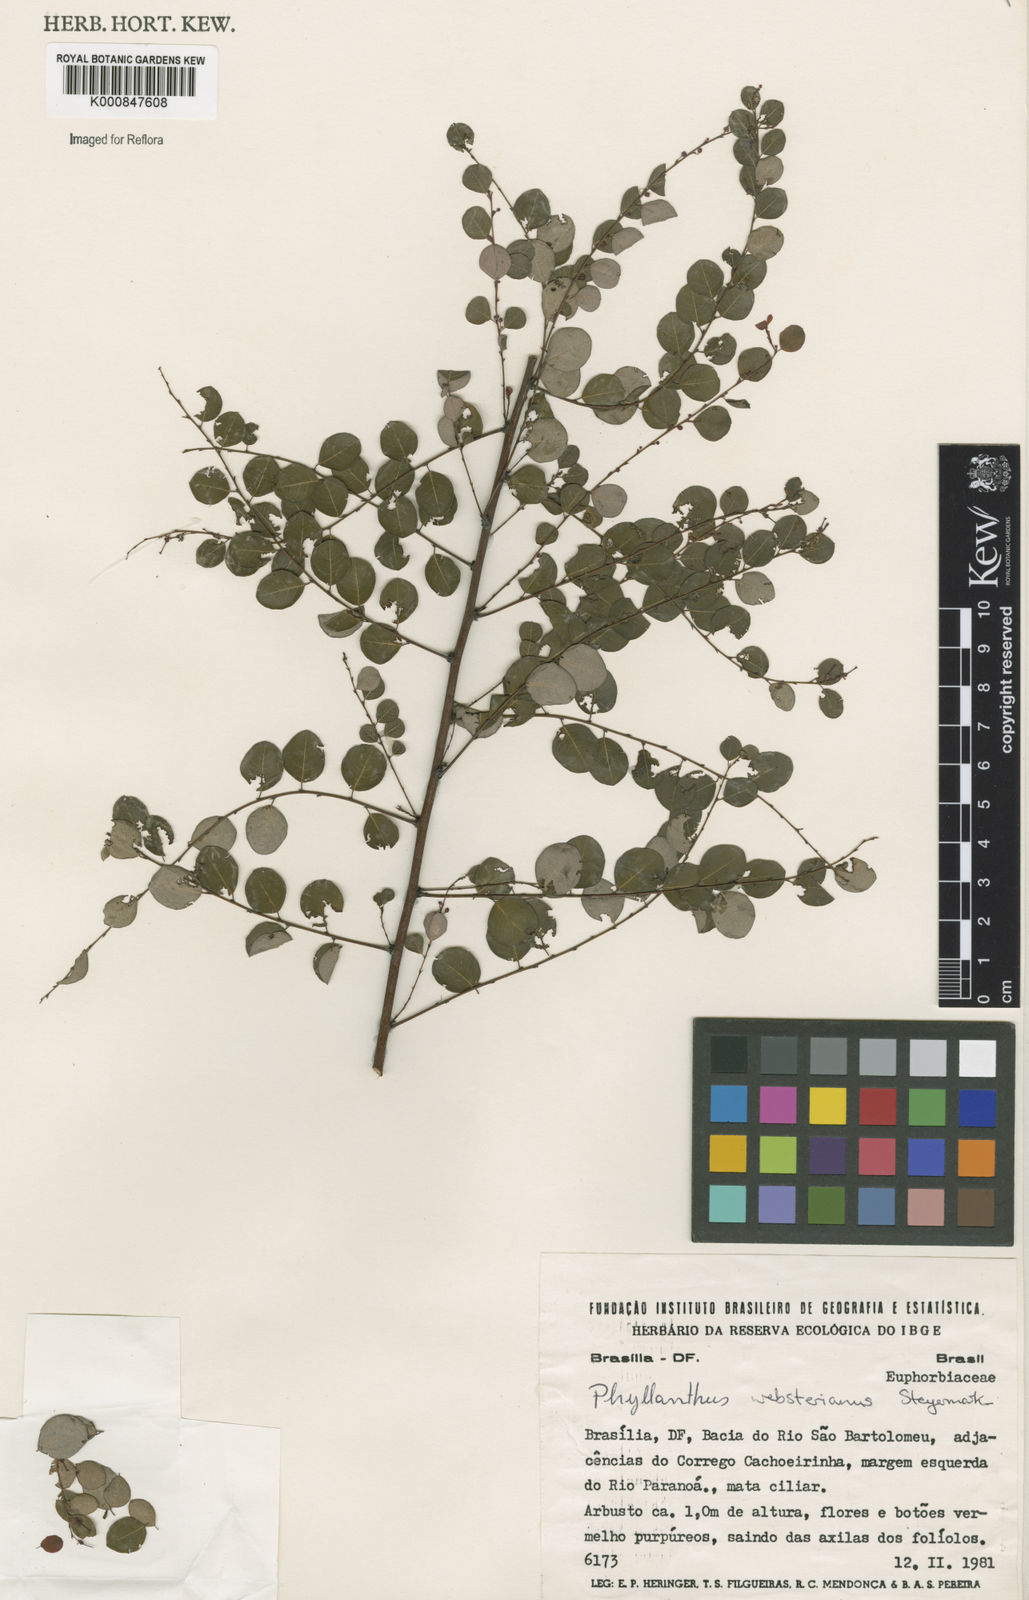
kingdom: Plantae
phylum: Tracheophyta
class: Magnoliopsida
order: Malpighiales
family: Phyllanthaceae
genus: Phyllanthus
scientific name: Phyllanthus websterianus
